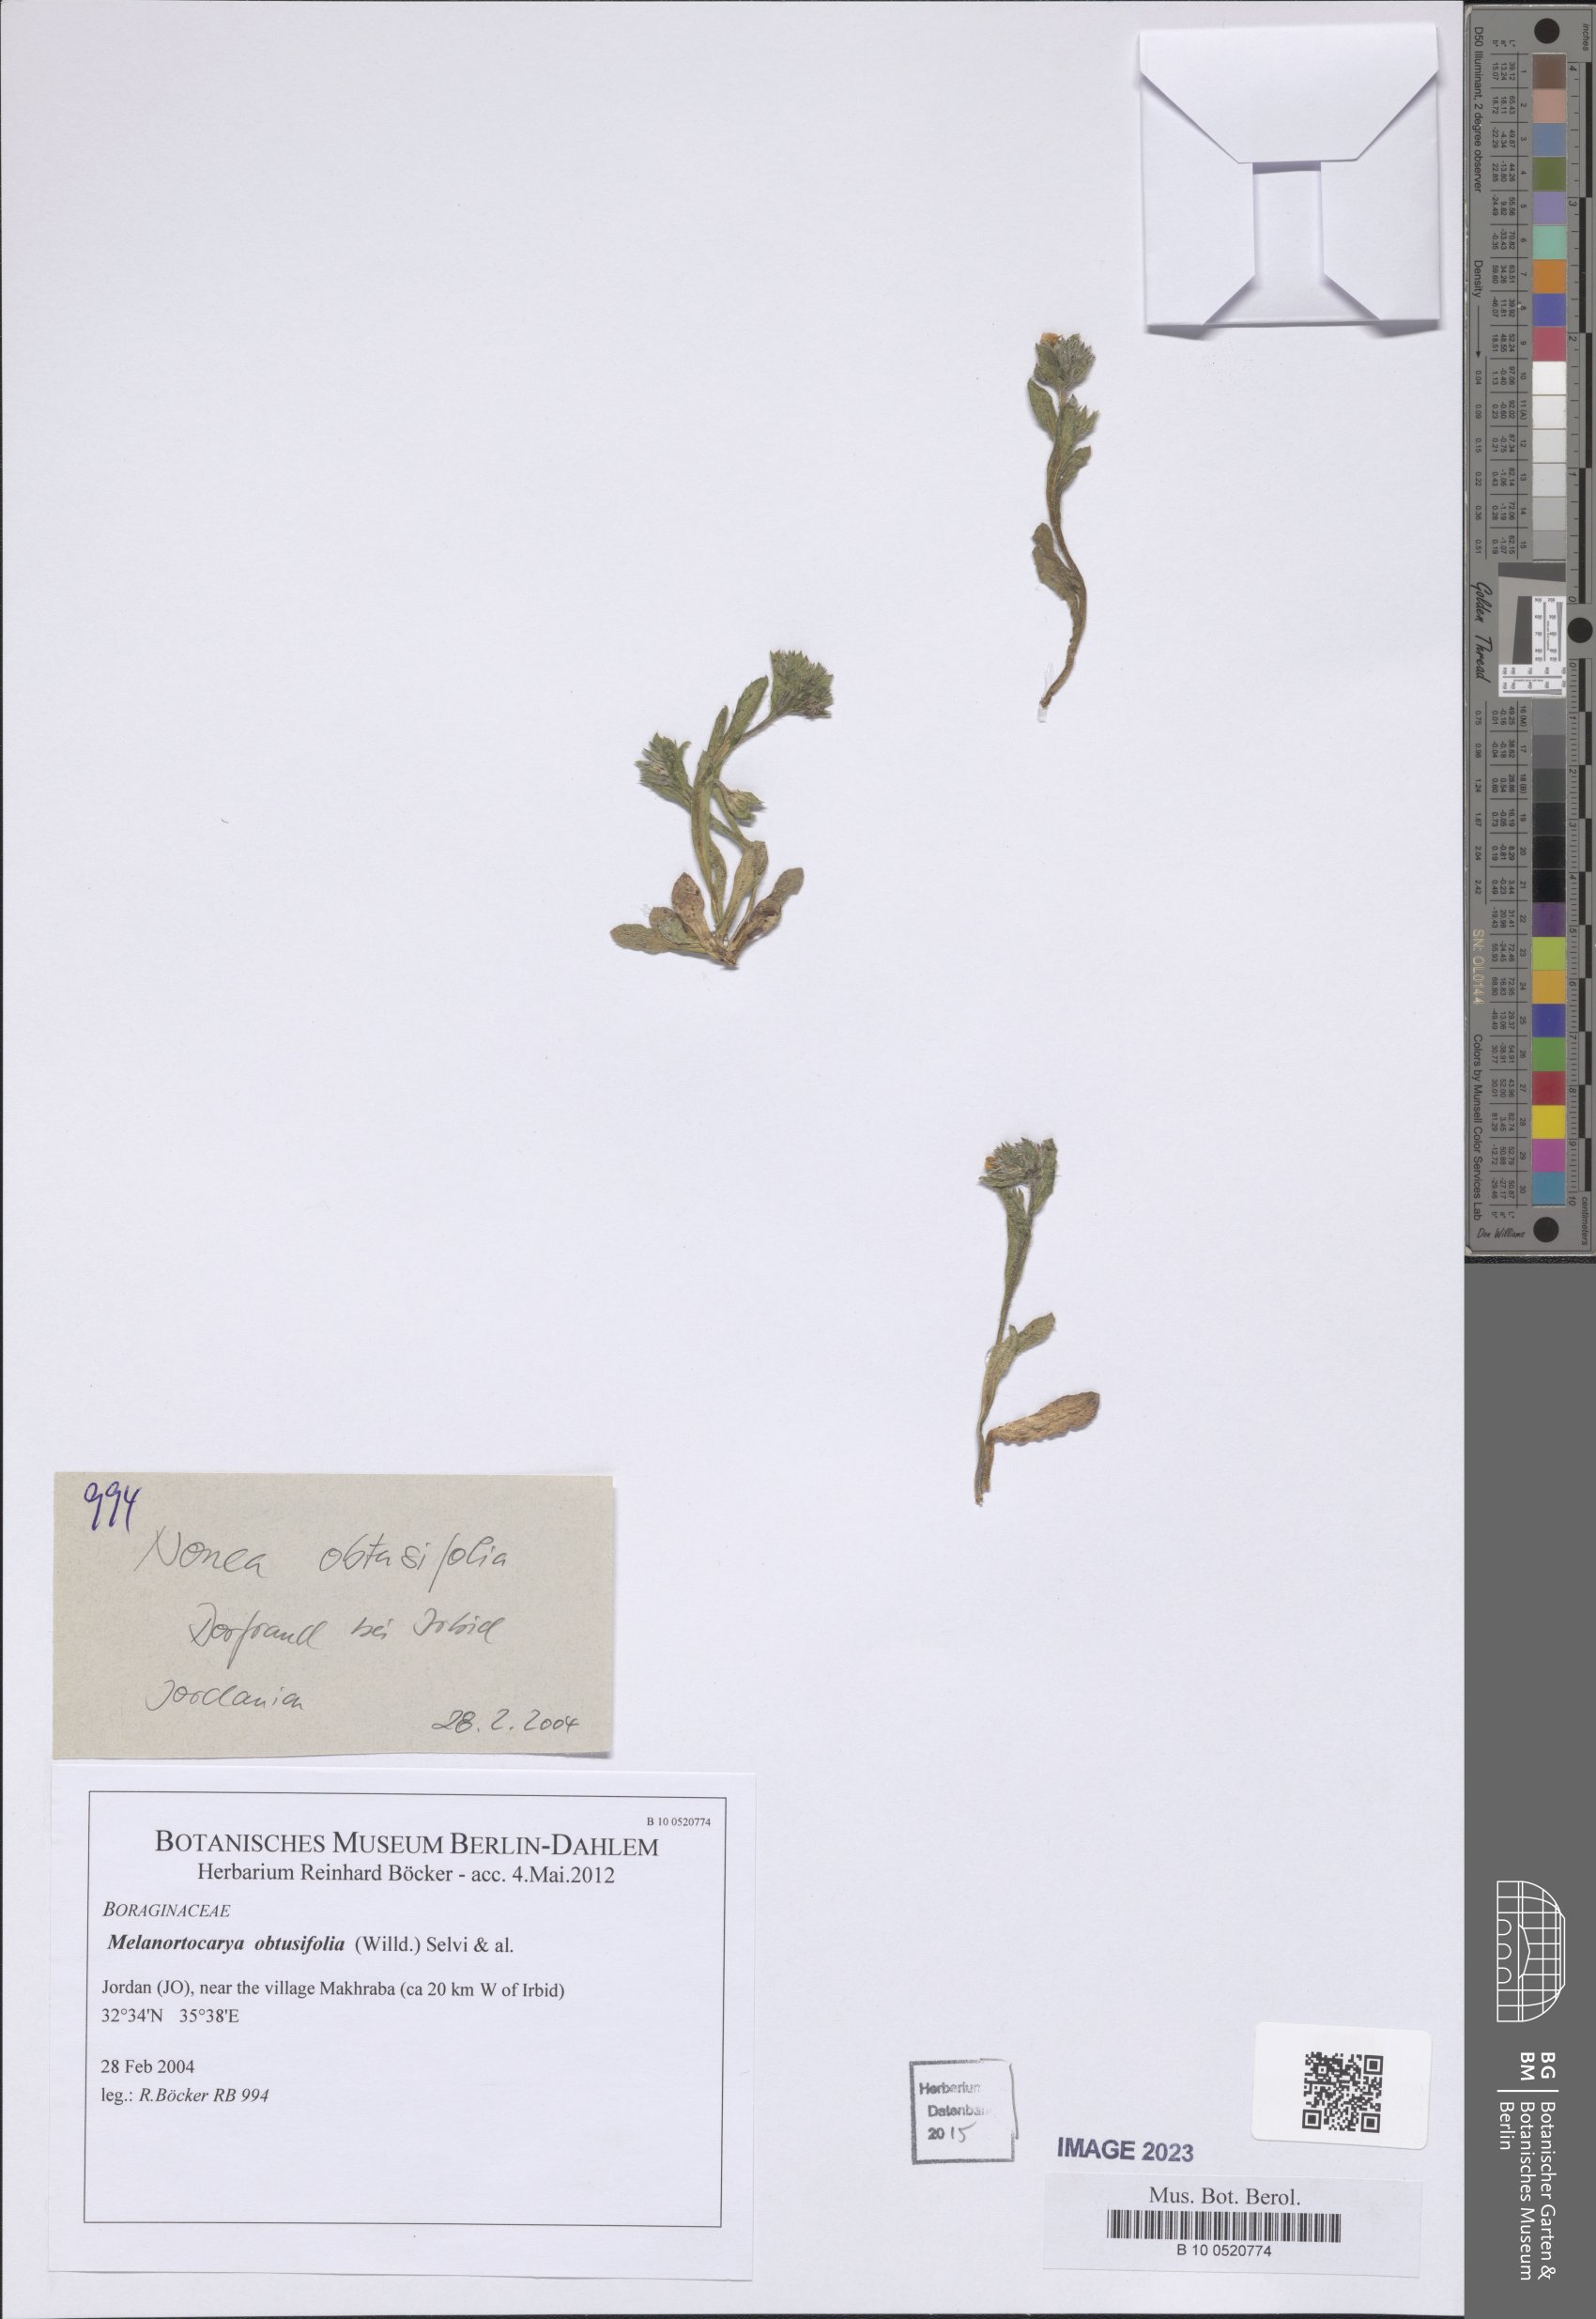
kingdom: Plantae
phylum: Tracheophyta
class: Magnoliopsida
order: Boraginales
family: Boraginaceae
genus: Melanortocarya
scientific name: Melanortocarya obtusifolia
